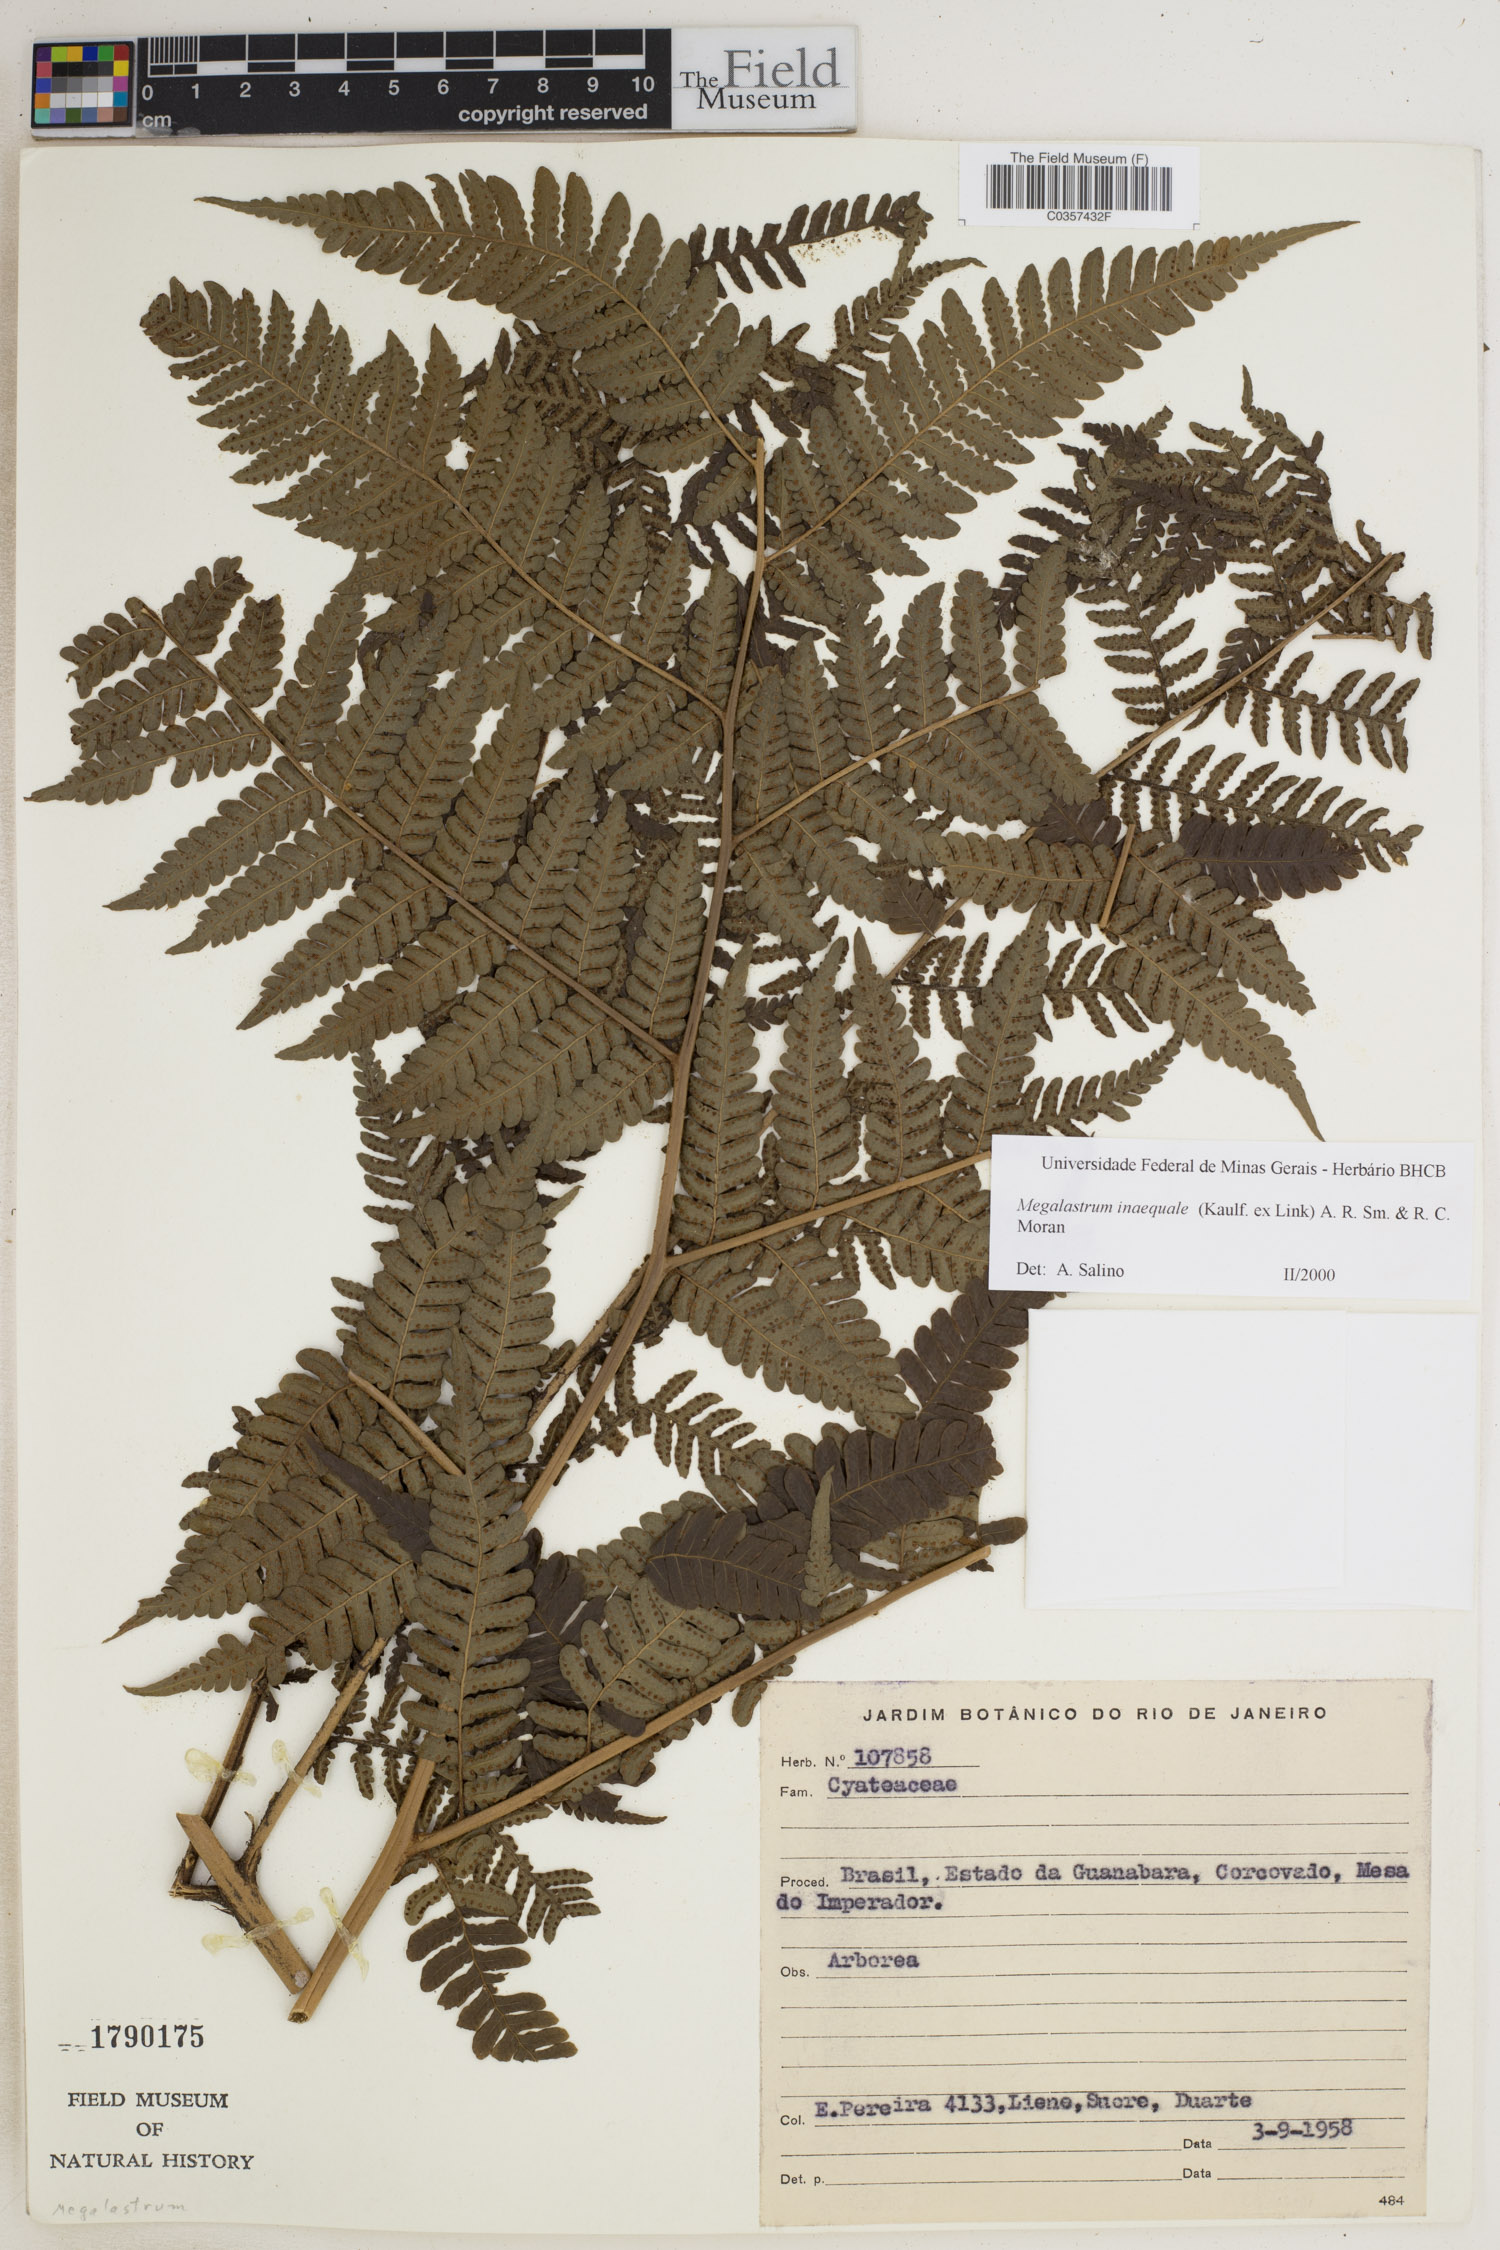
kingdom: Plantae
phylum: Tracheophyta
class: Polypodiopsida
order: Polypodiales
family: Dryopteridaceae
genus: Megalastrum
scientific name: Megalastrum inaequale
